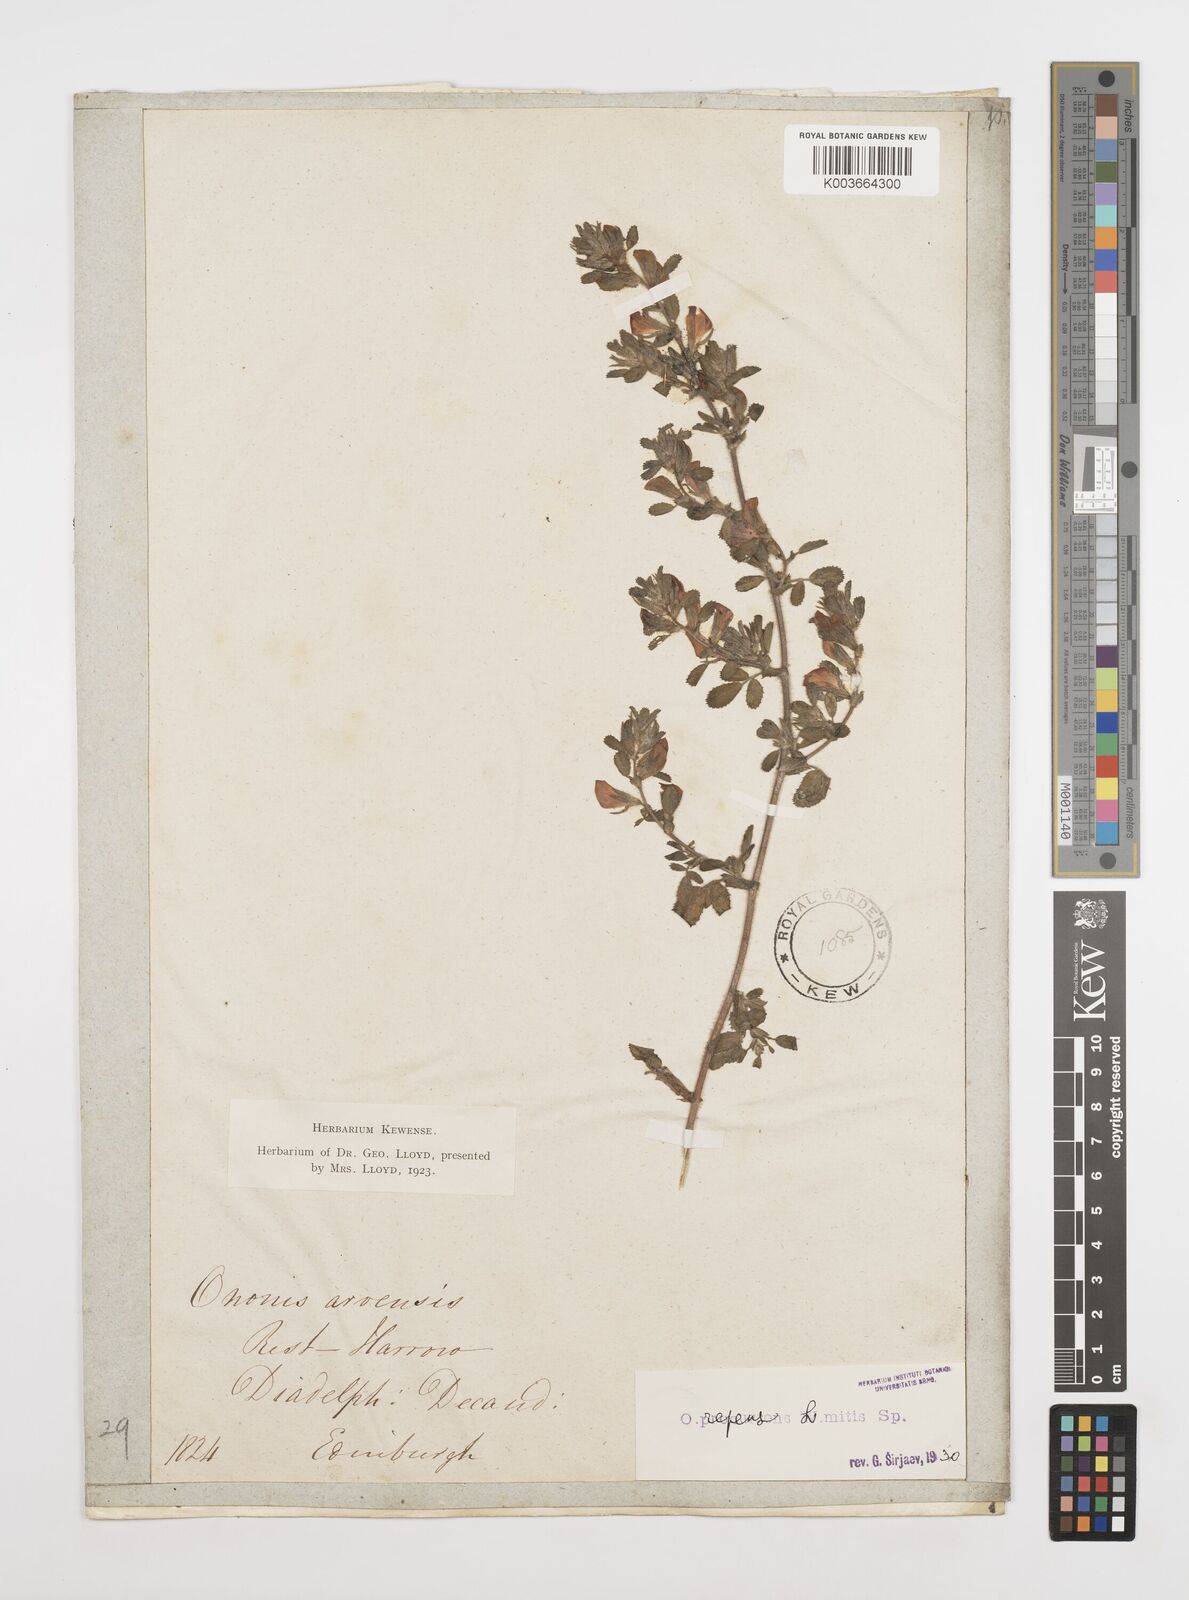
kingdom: Plantae
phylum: Tracheophyta
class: Magnoliopsida
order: Fabales
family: Fabaceae
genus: Ononis
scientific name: Ononis spinosa
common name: Spiny restharrow
